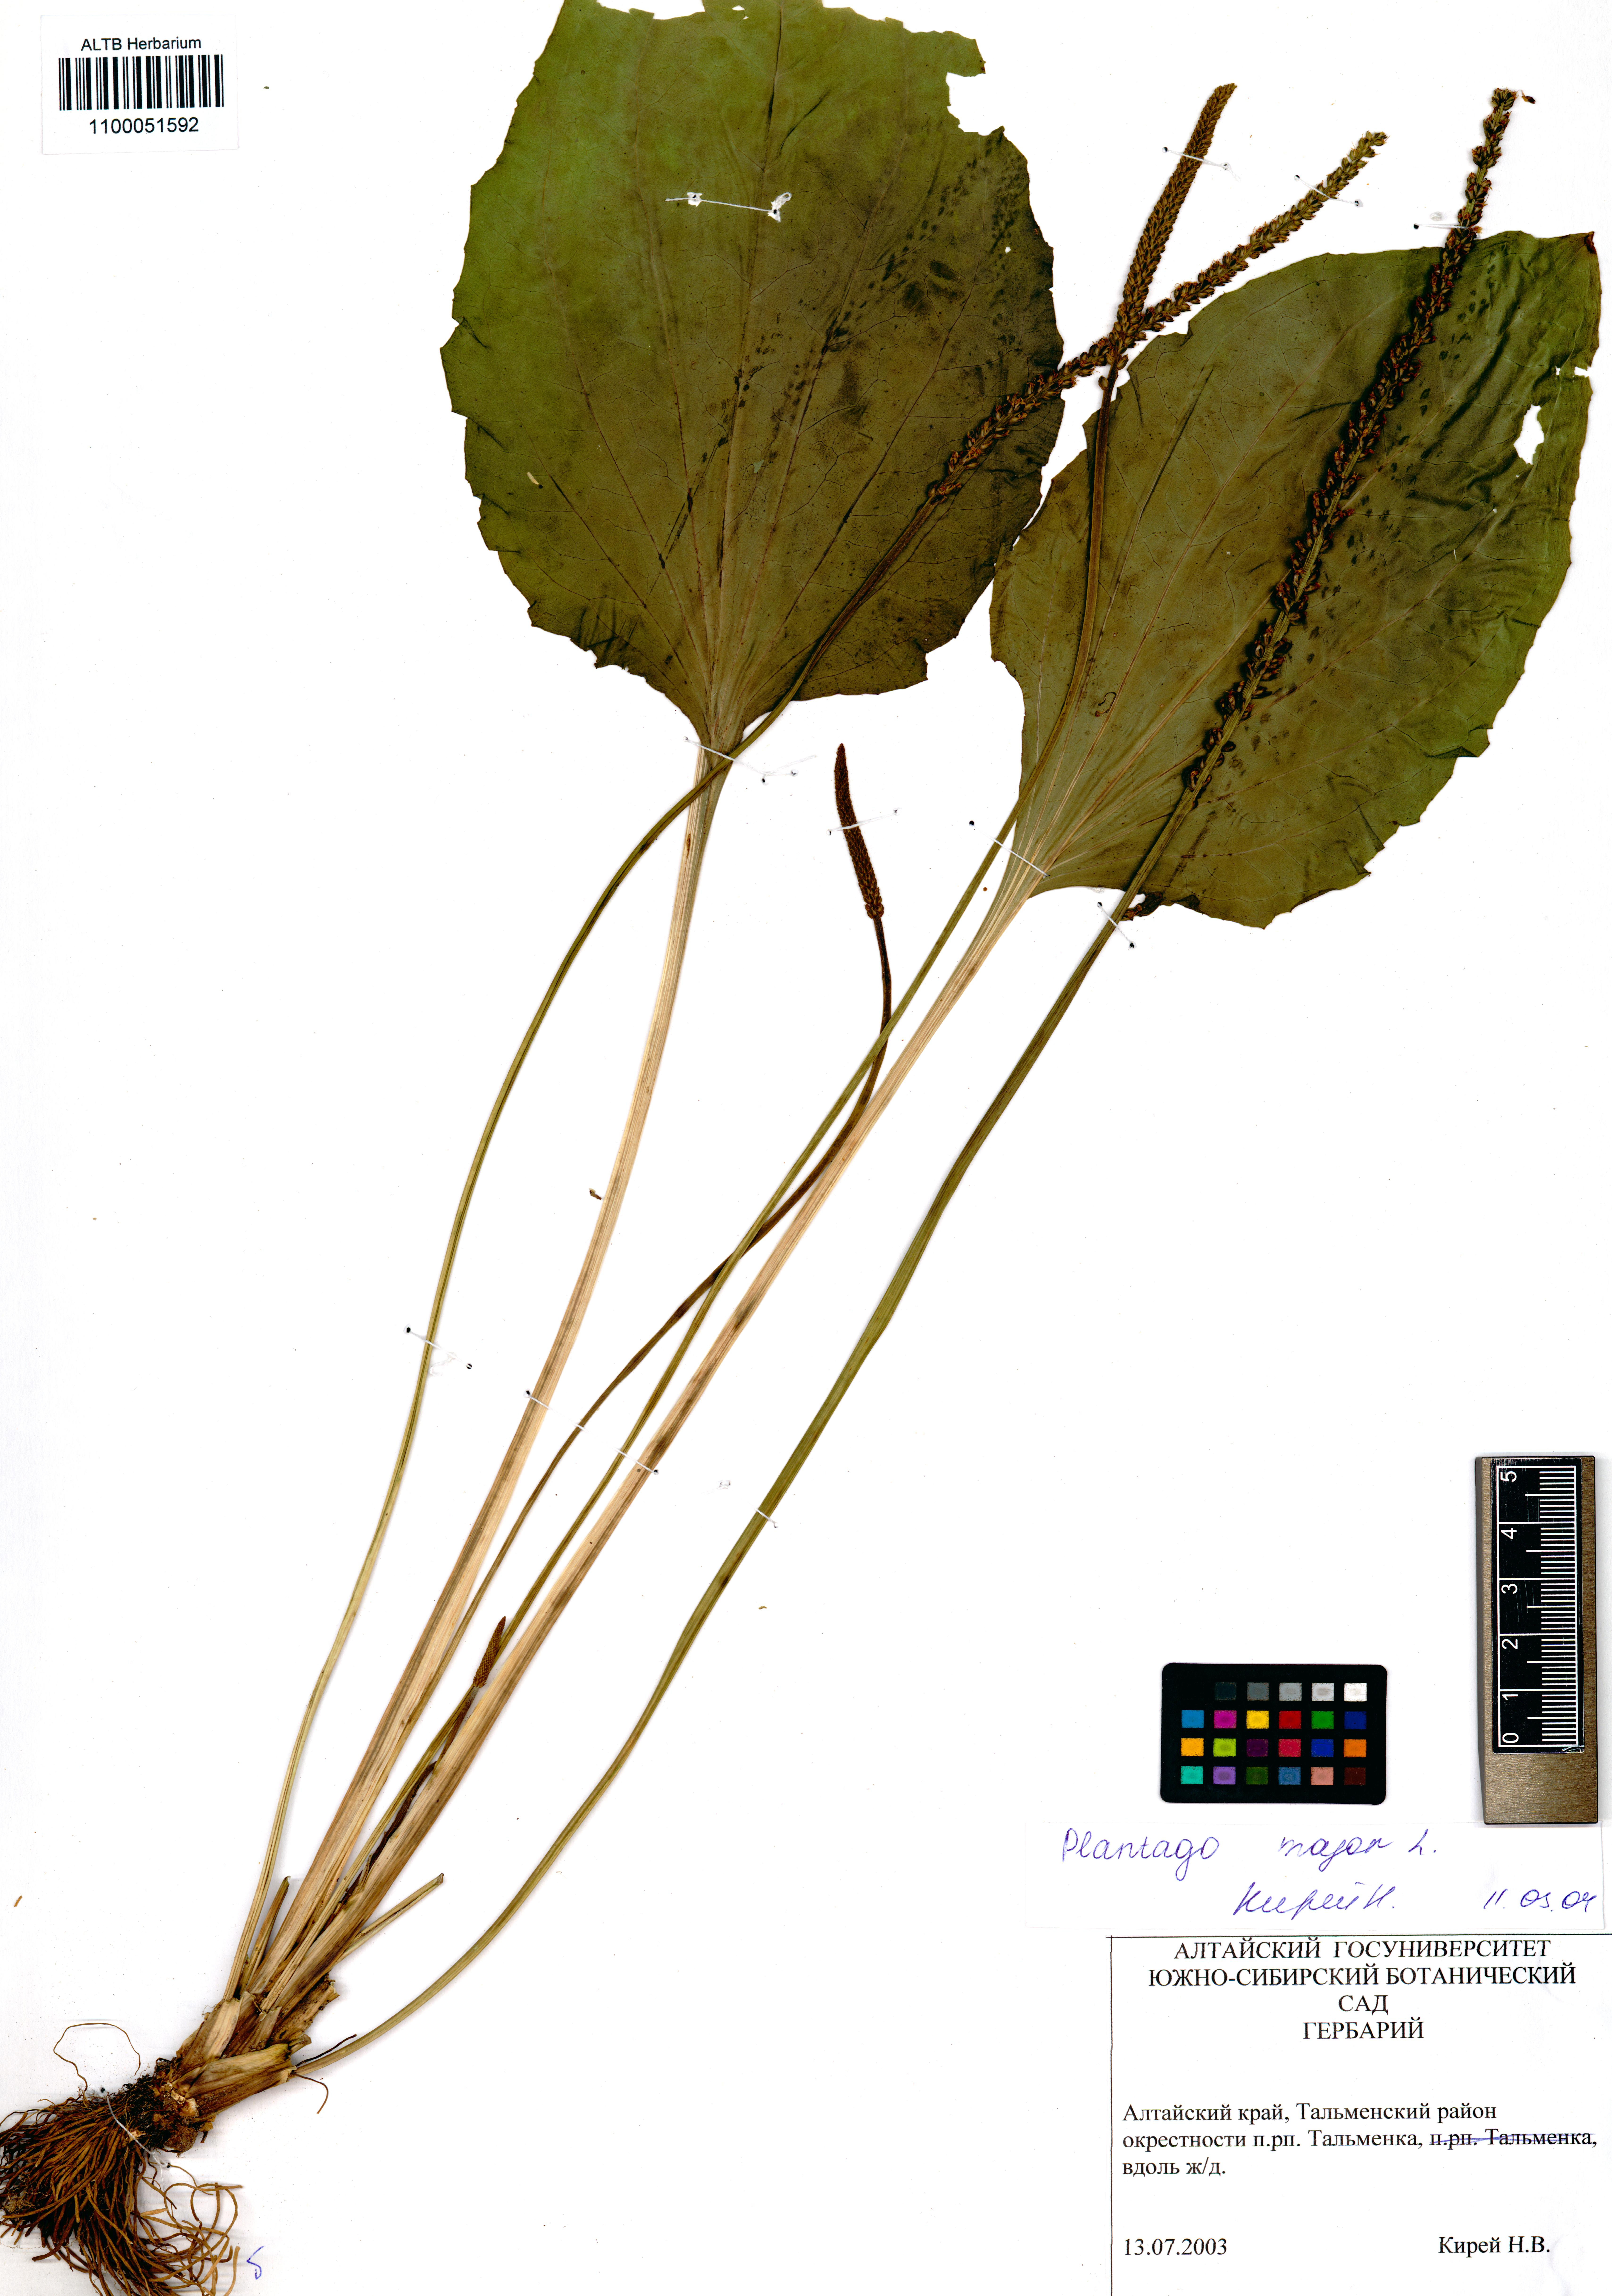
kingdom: Plantae
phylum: Tracheophyta
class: Magnoliopsida
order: Lamiales
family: Plantaginaceae
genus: Plantago
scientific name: Plantago major
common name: Common plantain
